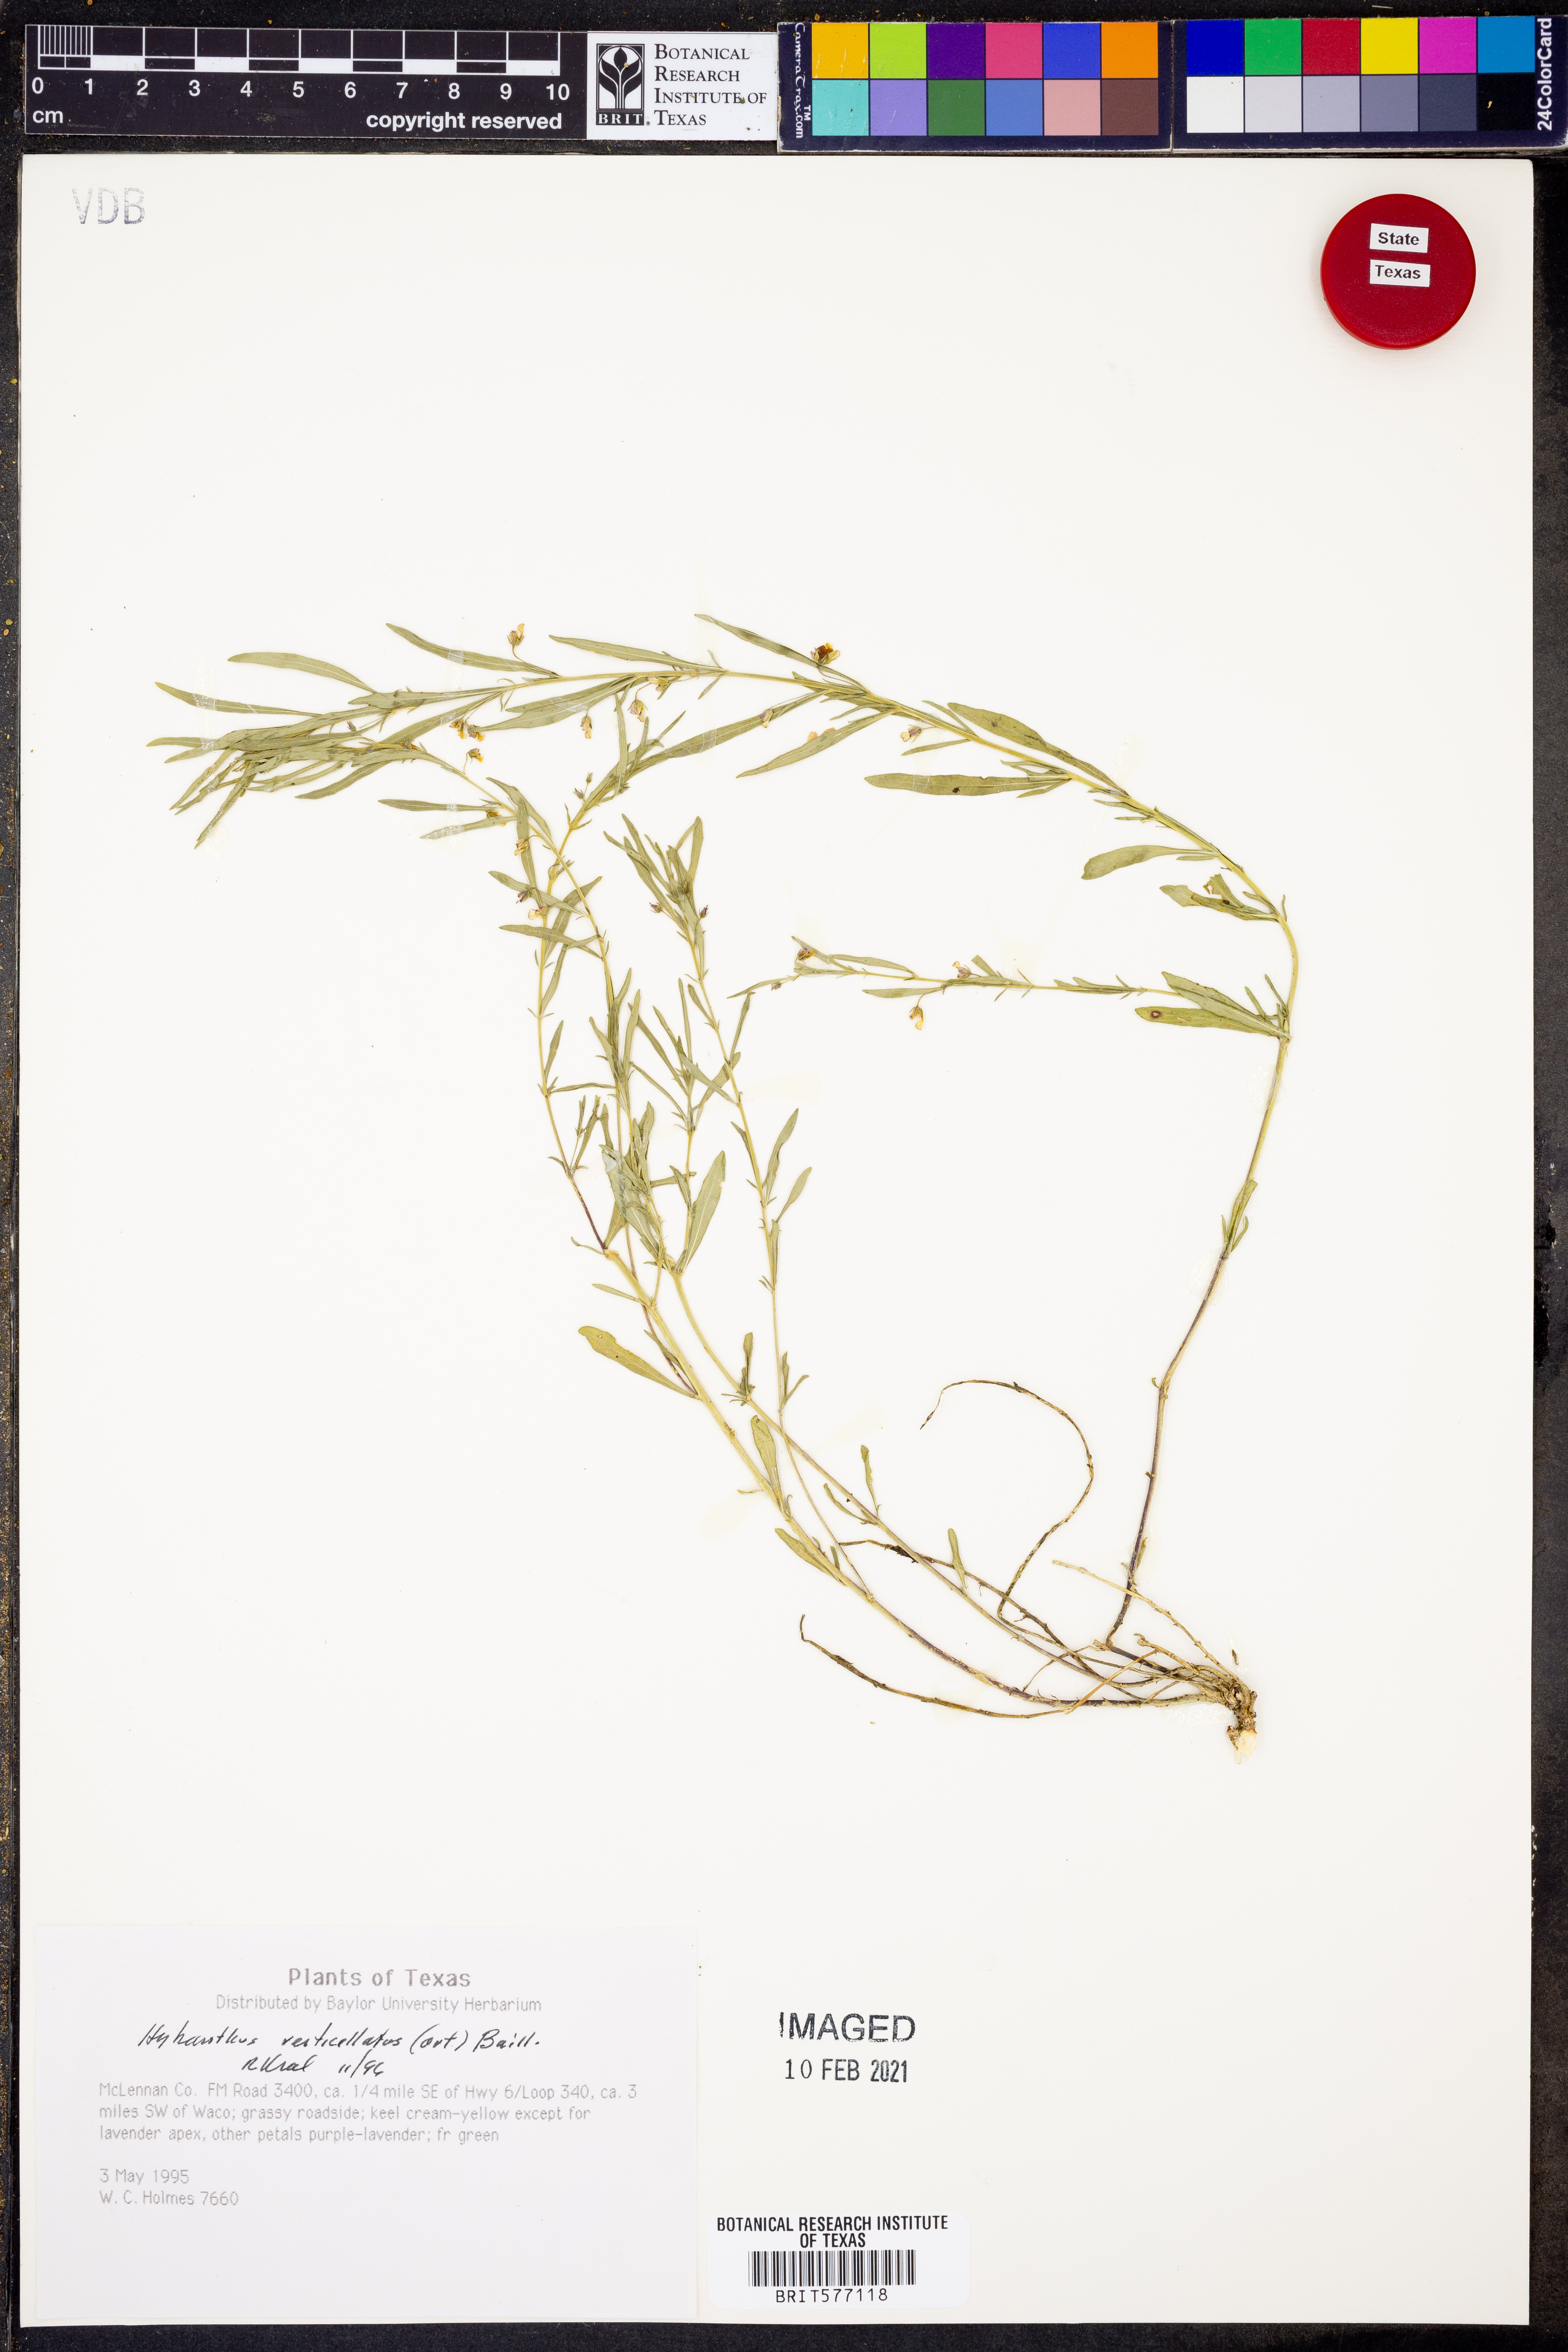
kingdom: Plantae
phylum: Tracheophyta
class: Magnoliopsida
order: Malpighiales
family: Violaceae
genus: Pombalia
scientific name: Pombalia verticillata
